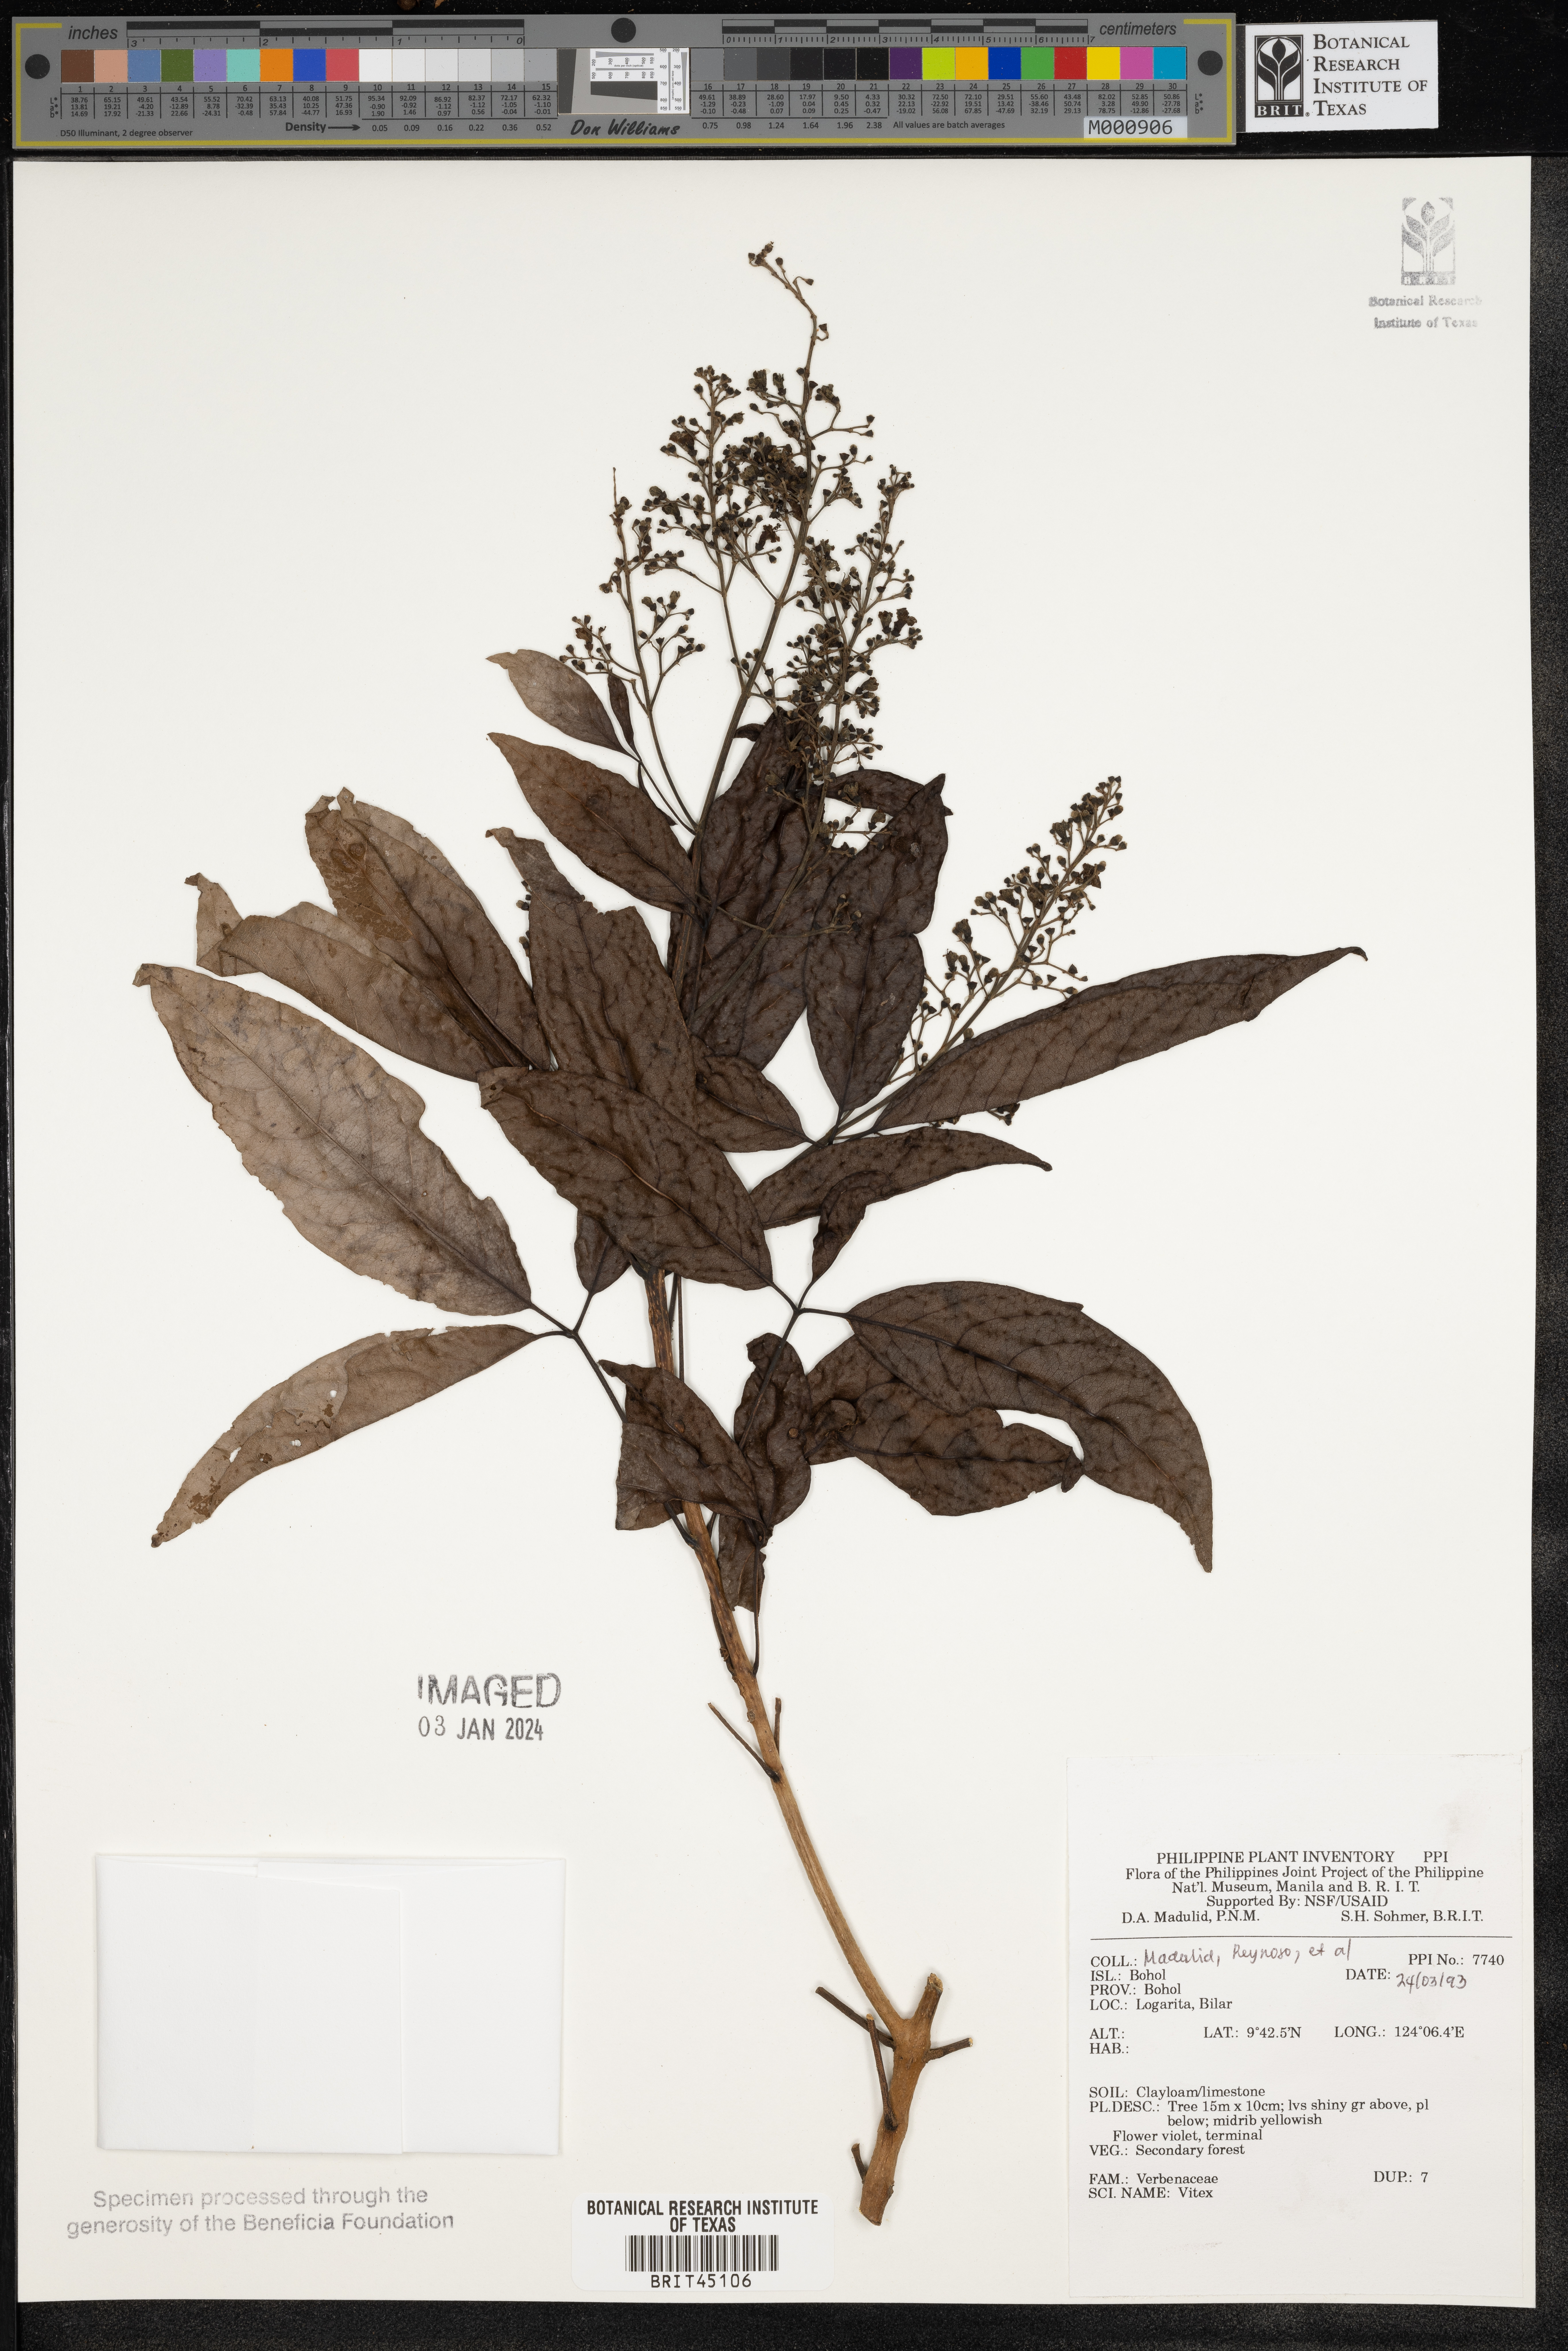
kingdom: Plantae
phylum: Tracheophyta
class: Magnoliopsida
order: Lamiales
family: Lamiaceae
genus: Vitex
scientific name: Vitex
